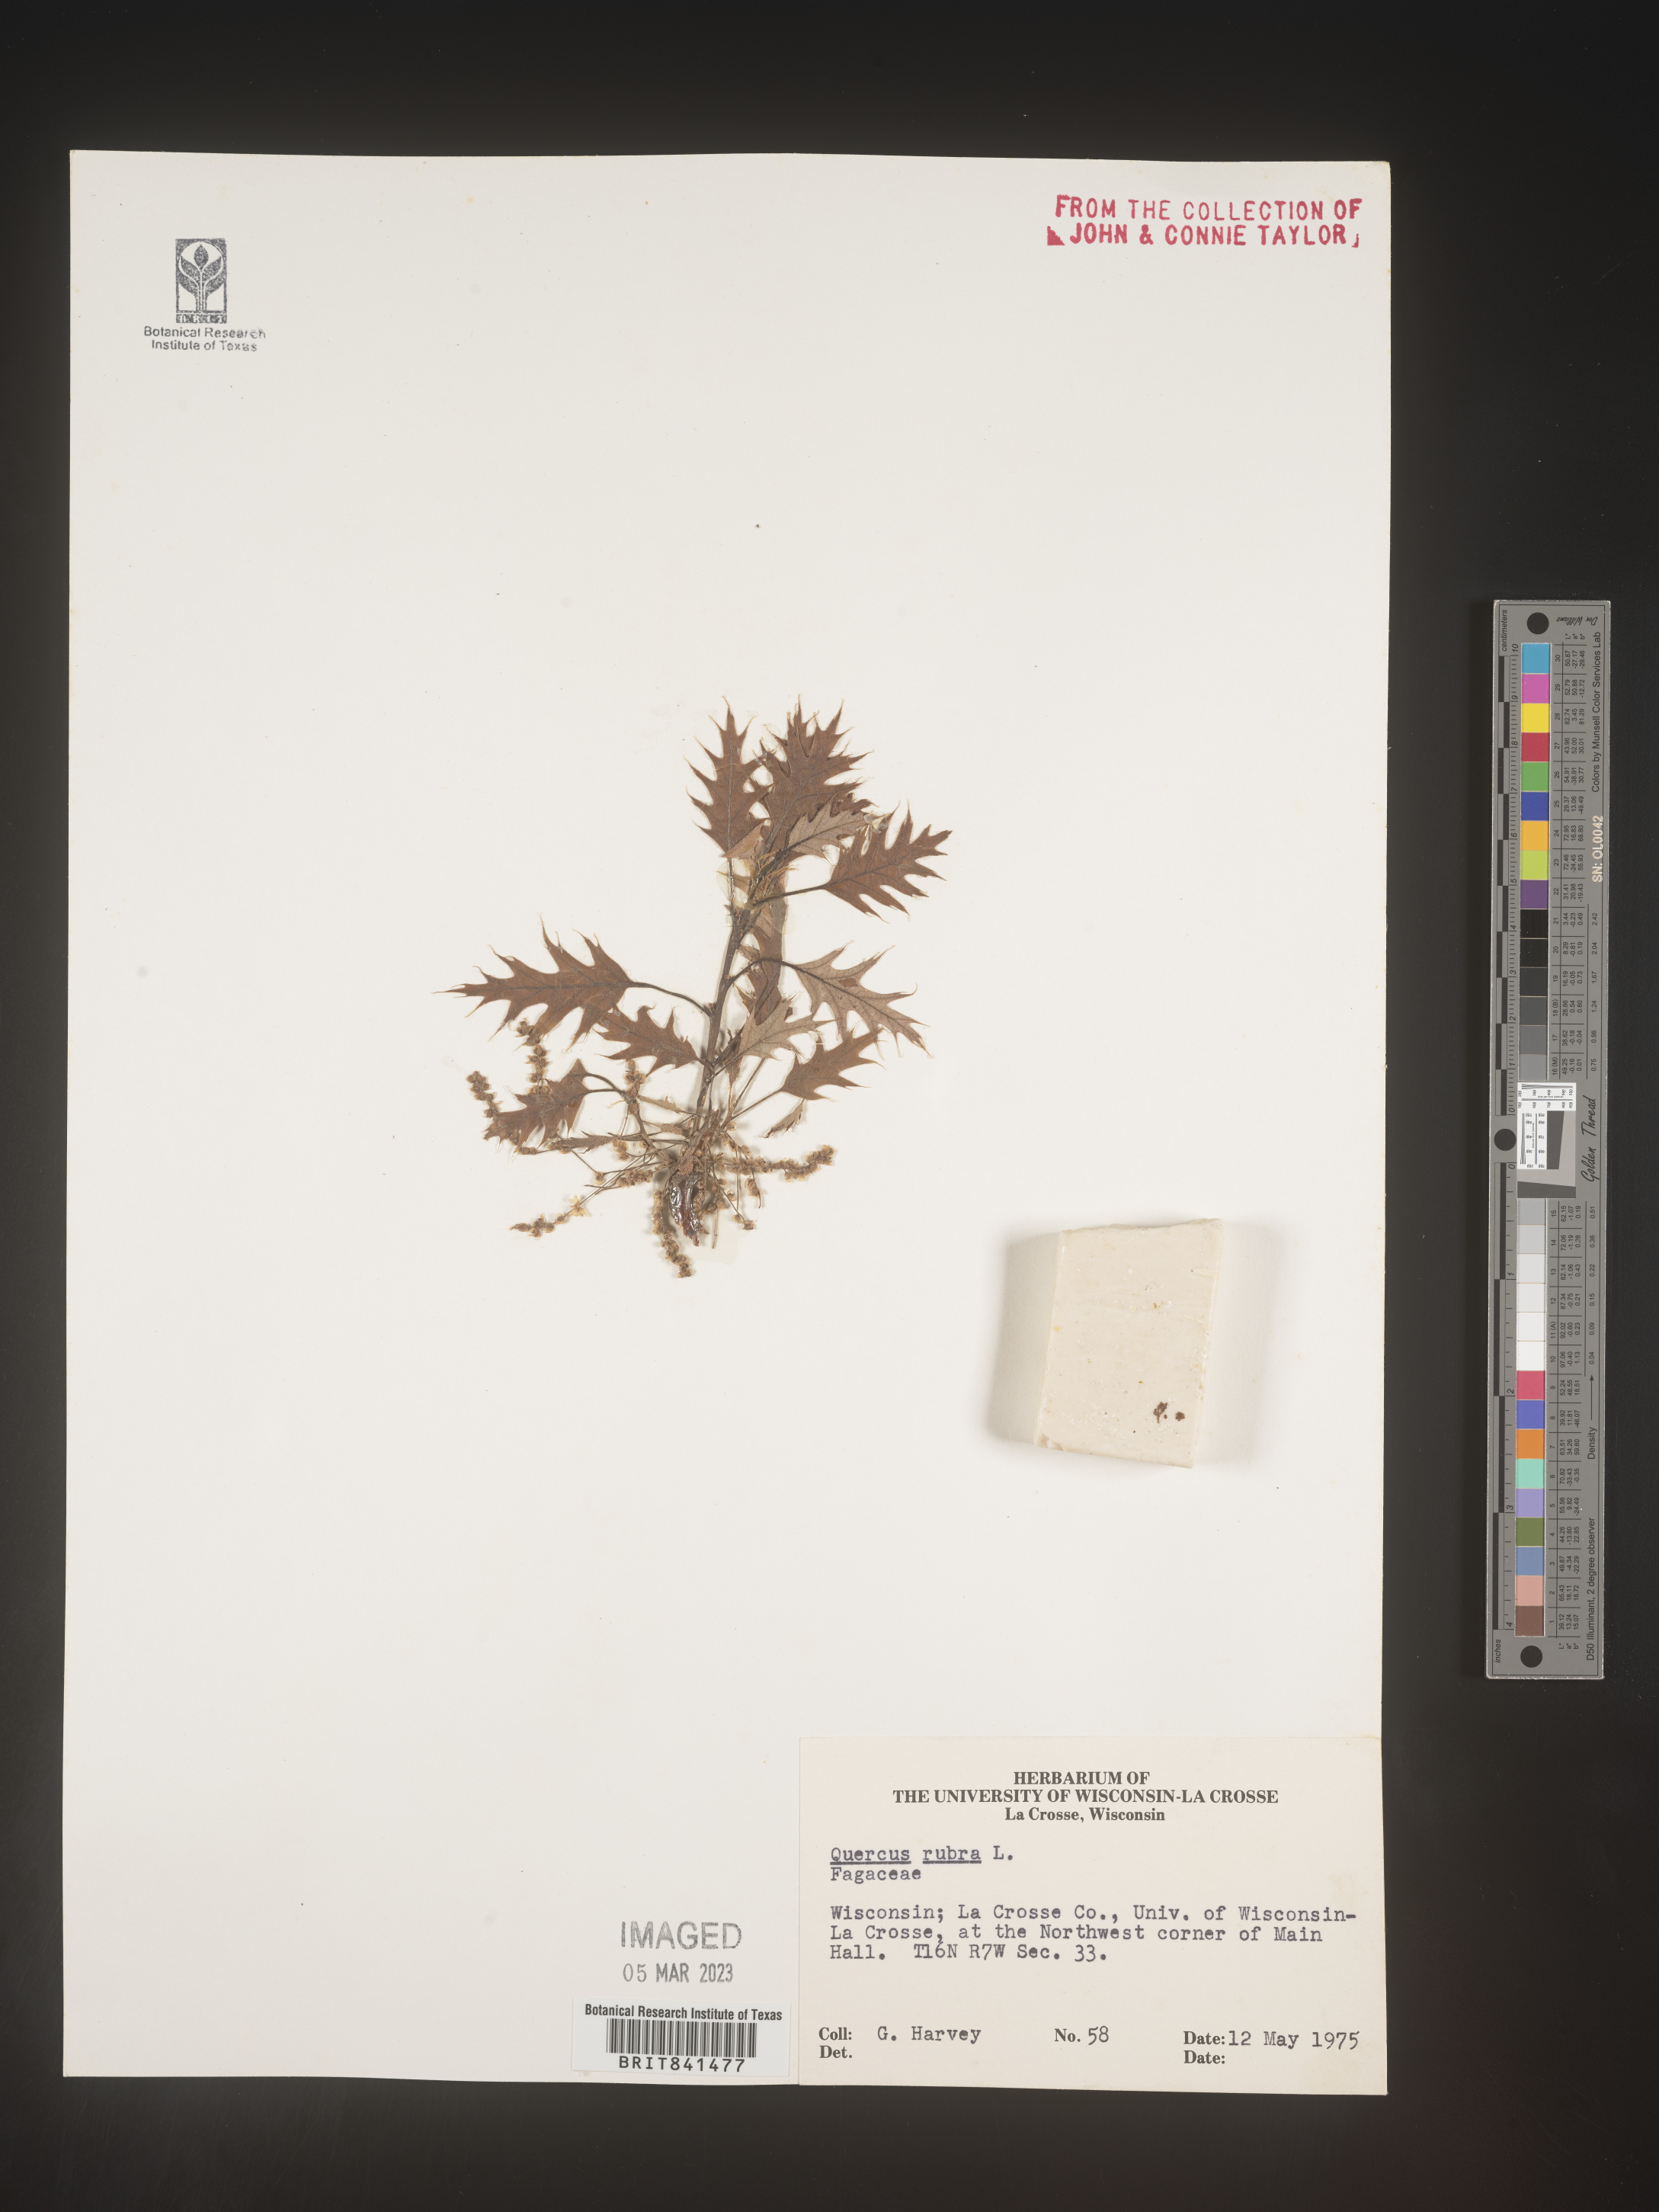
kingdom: Plantae
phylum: Tracheophyta
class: Magnoliopsida
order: Fagales
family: Fagaceae
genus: Quercus
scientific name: Quercus rubra
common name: Red oak
